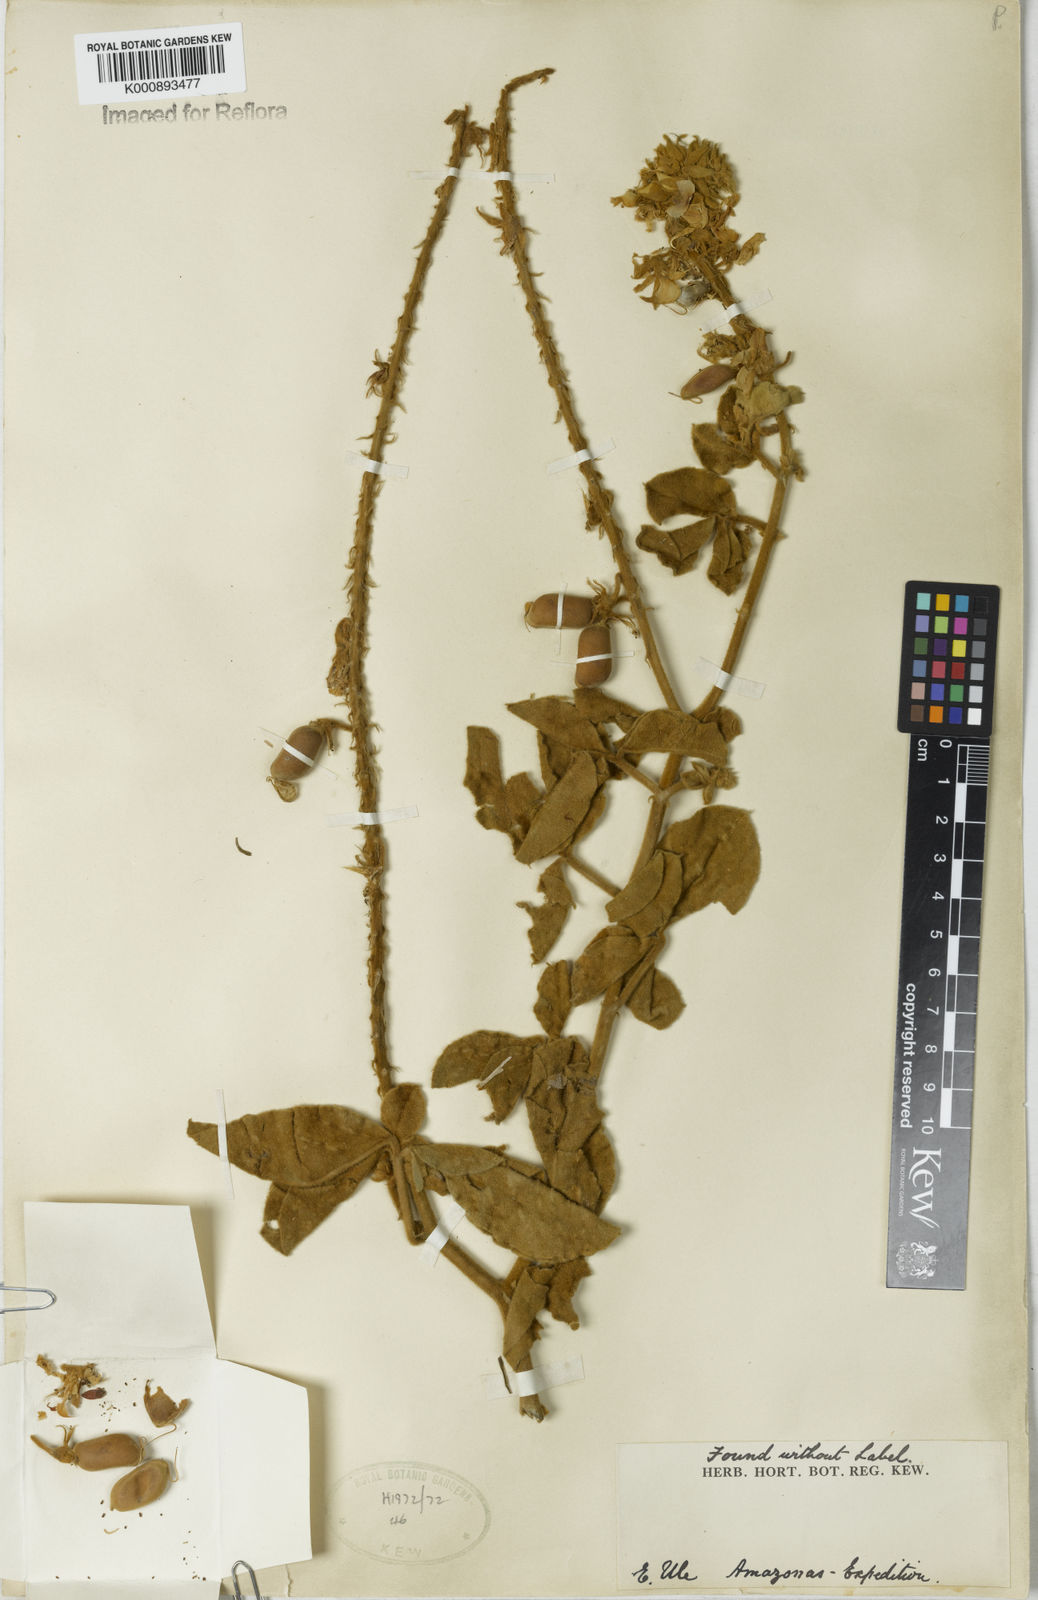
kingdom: Plantae
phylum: Tracheophyta
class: Magnoliopsida
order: Fabales
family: Fabaceae
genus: Crotalaria
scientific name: Crotalaria bahiaensis
